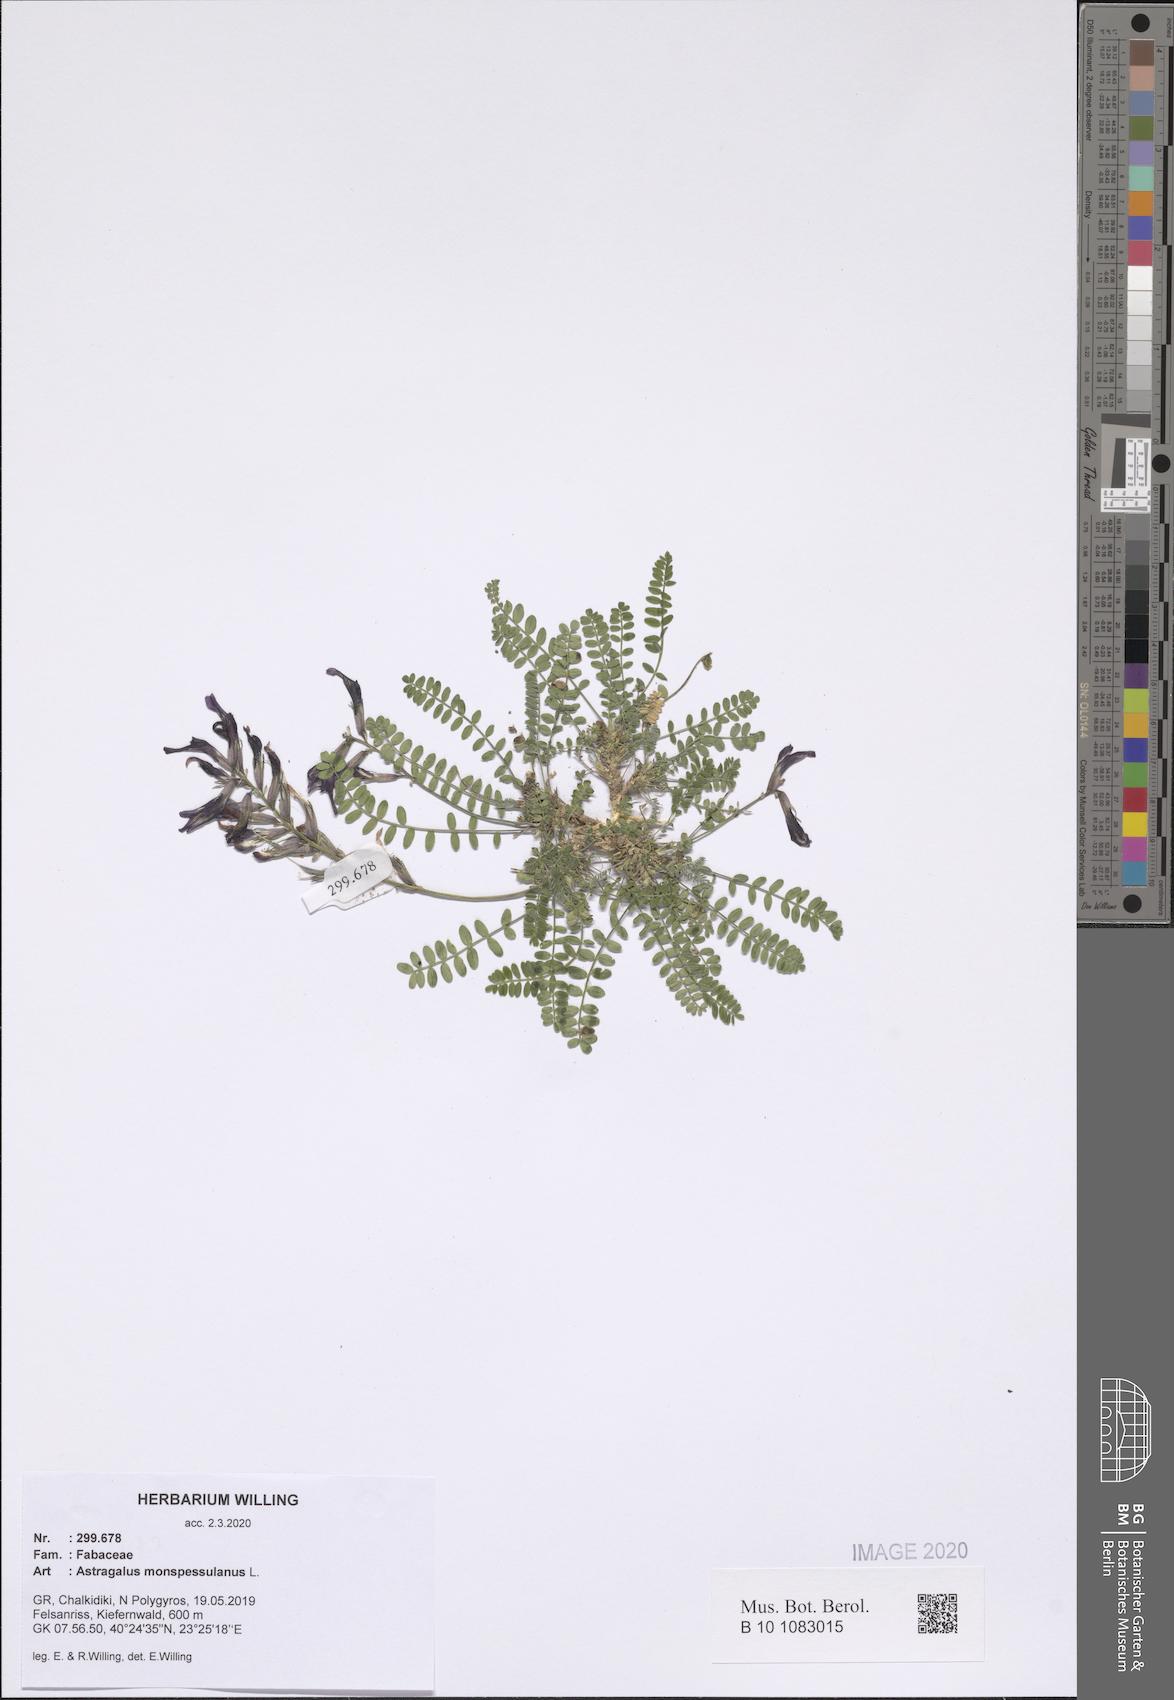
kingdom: Plantae
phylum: Tracheophyta
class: Magnoliopsida
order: Fabales
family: Fabaceae
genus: Astragalus
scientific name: Astragalus monspessulanus
